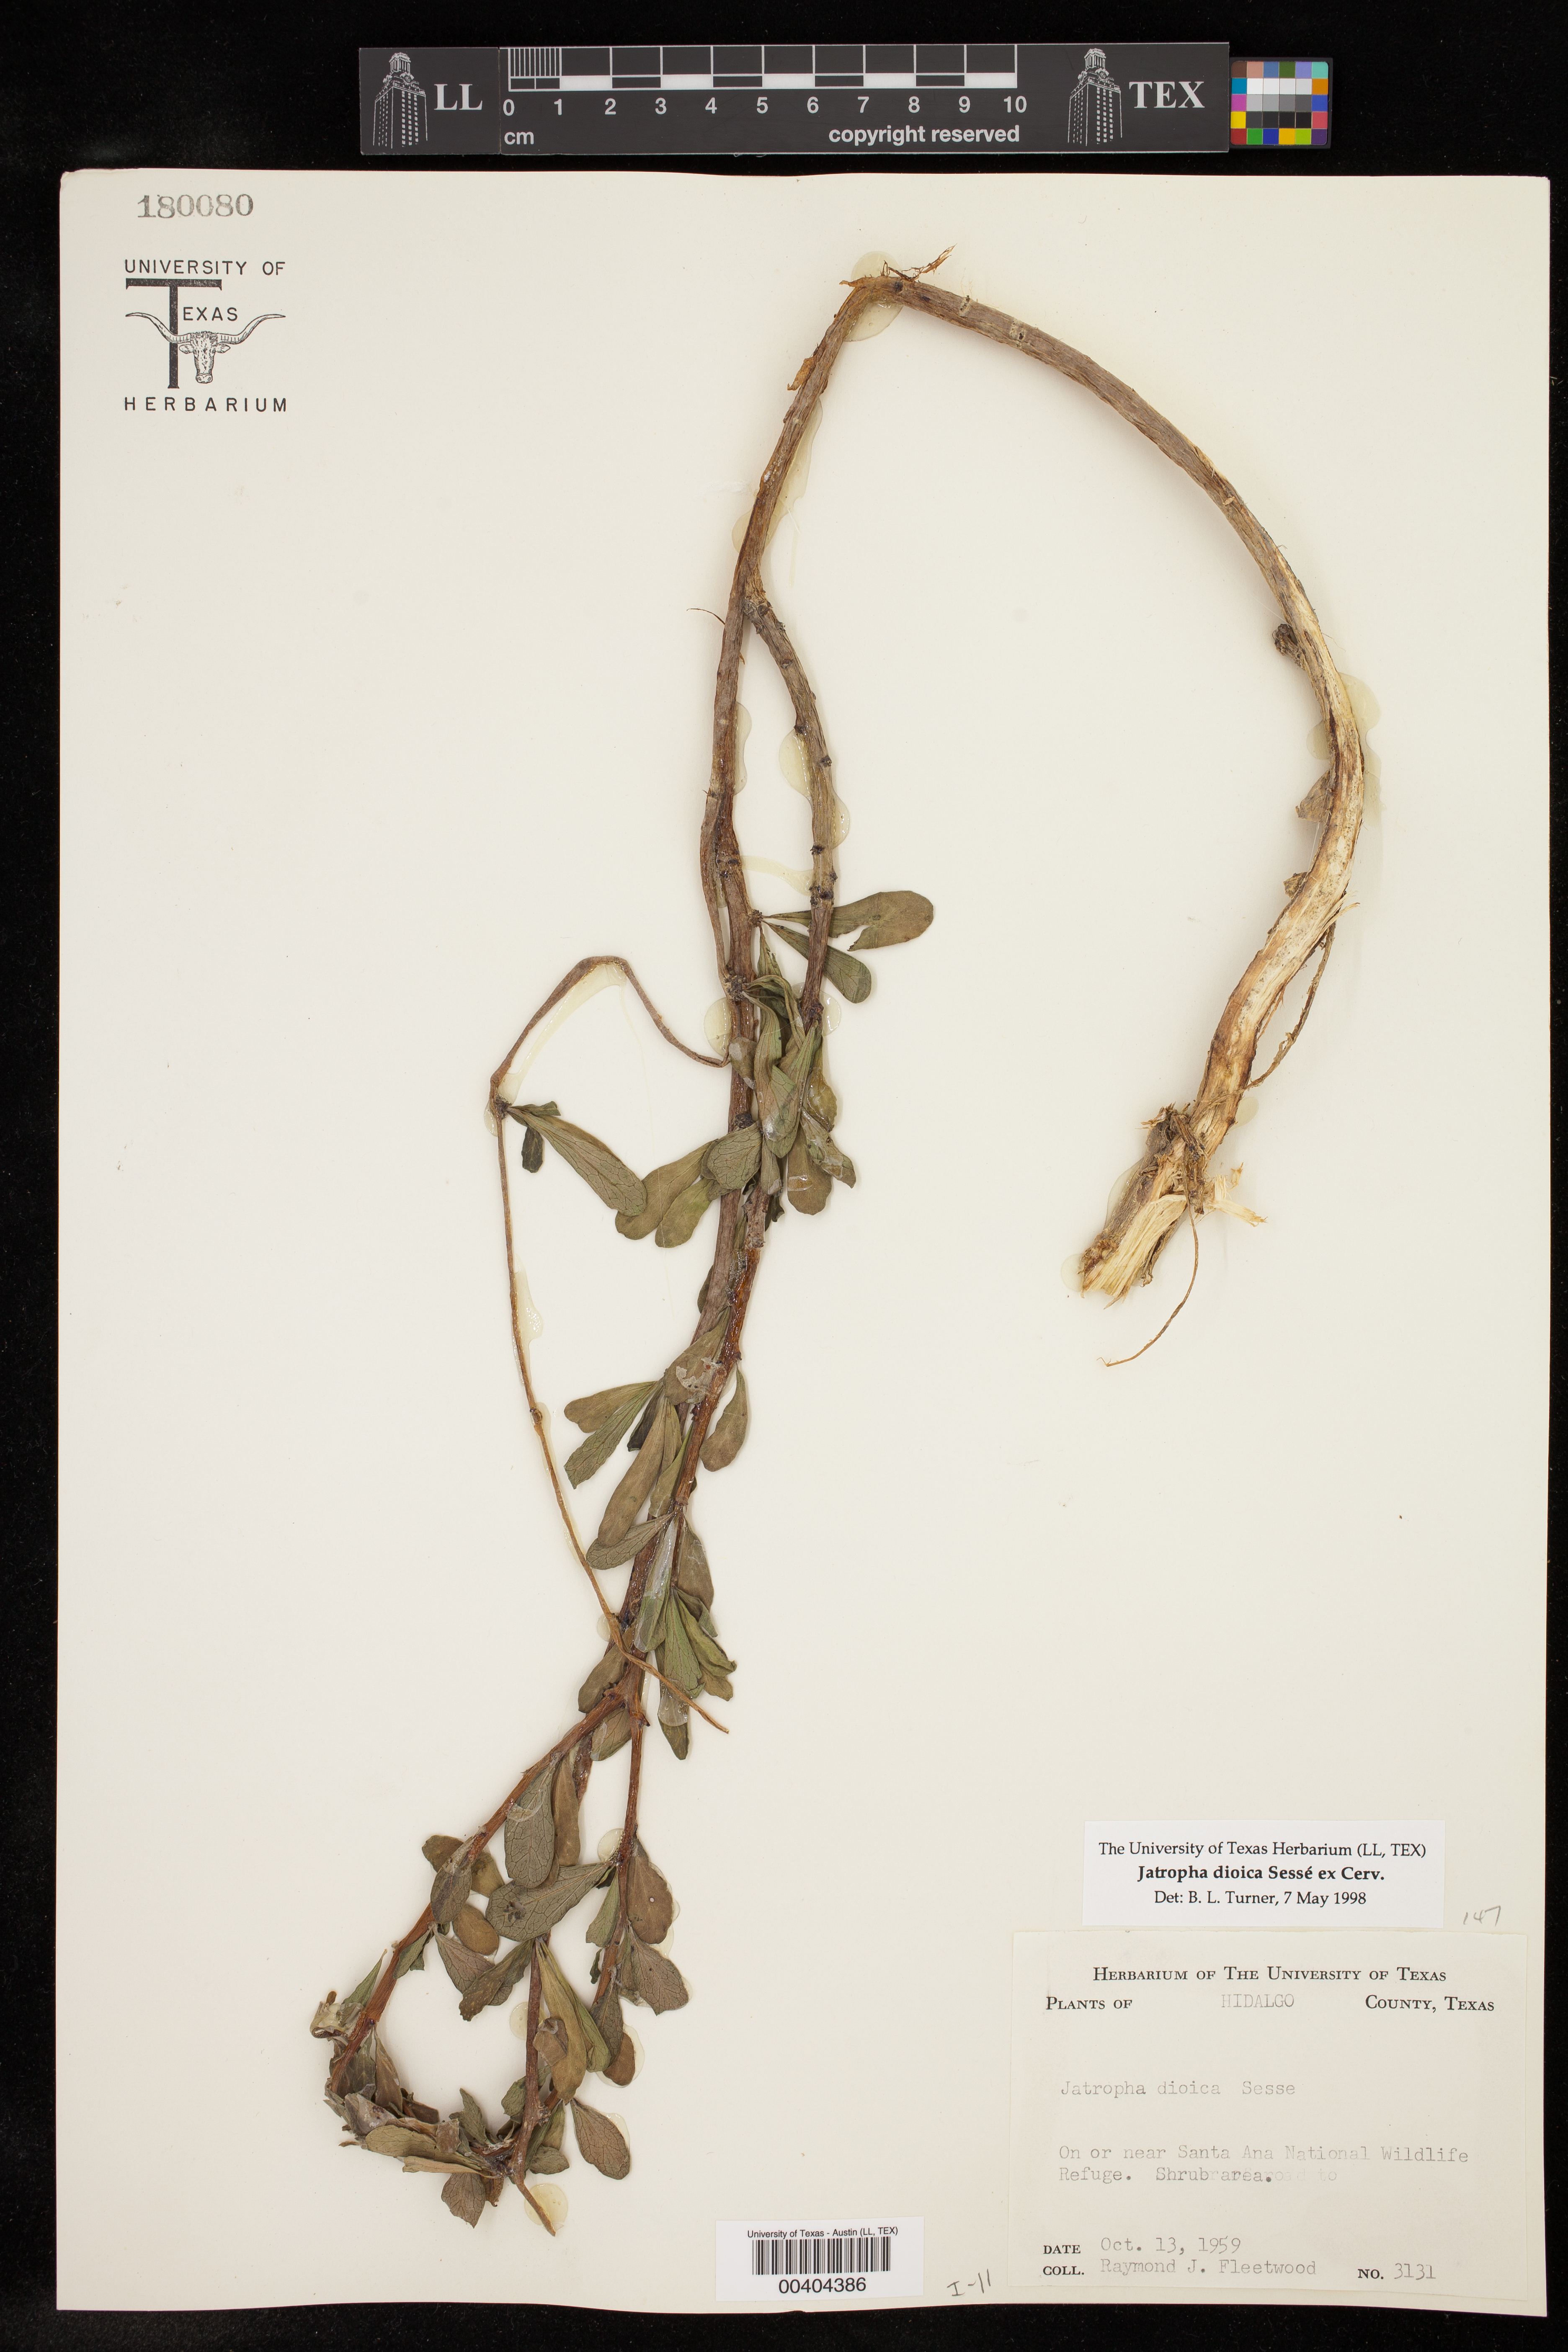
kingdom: Plantae
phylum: Tracheophyta
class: Magnoliopsida
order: Malpighiales
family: Euphorbiaceae
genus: Jatropha
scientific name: Jatropha dioica
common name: Leatherstem
